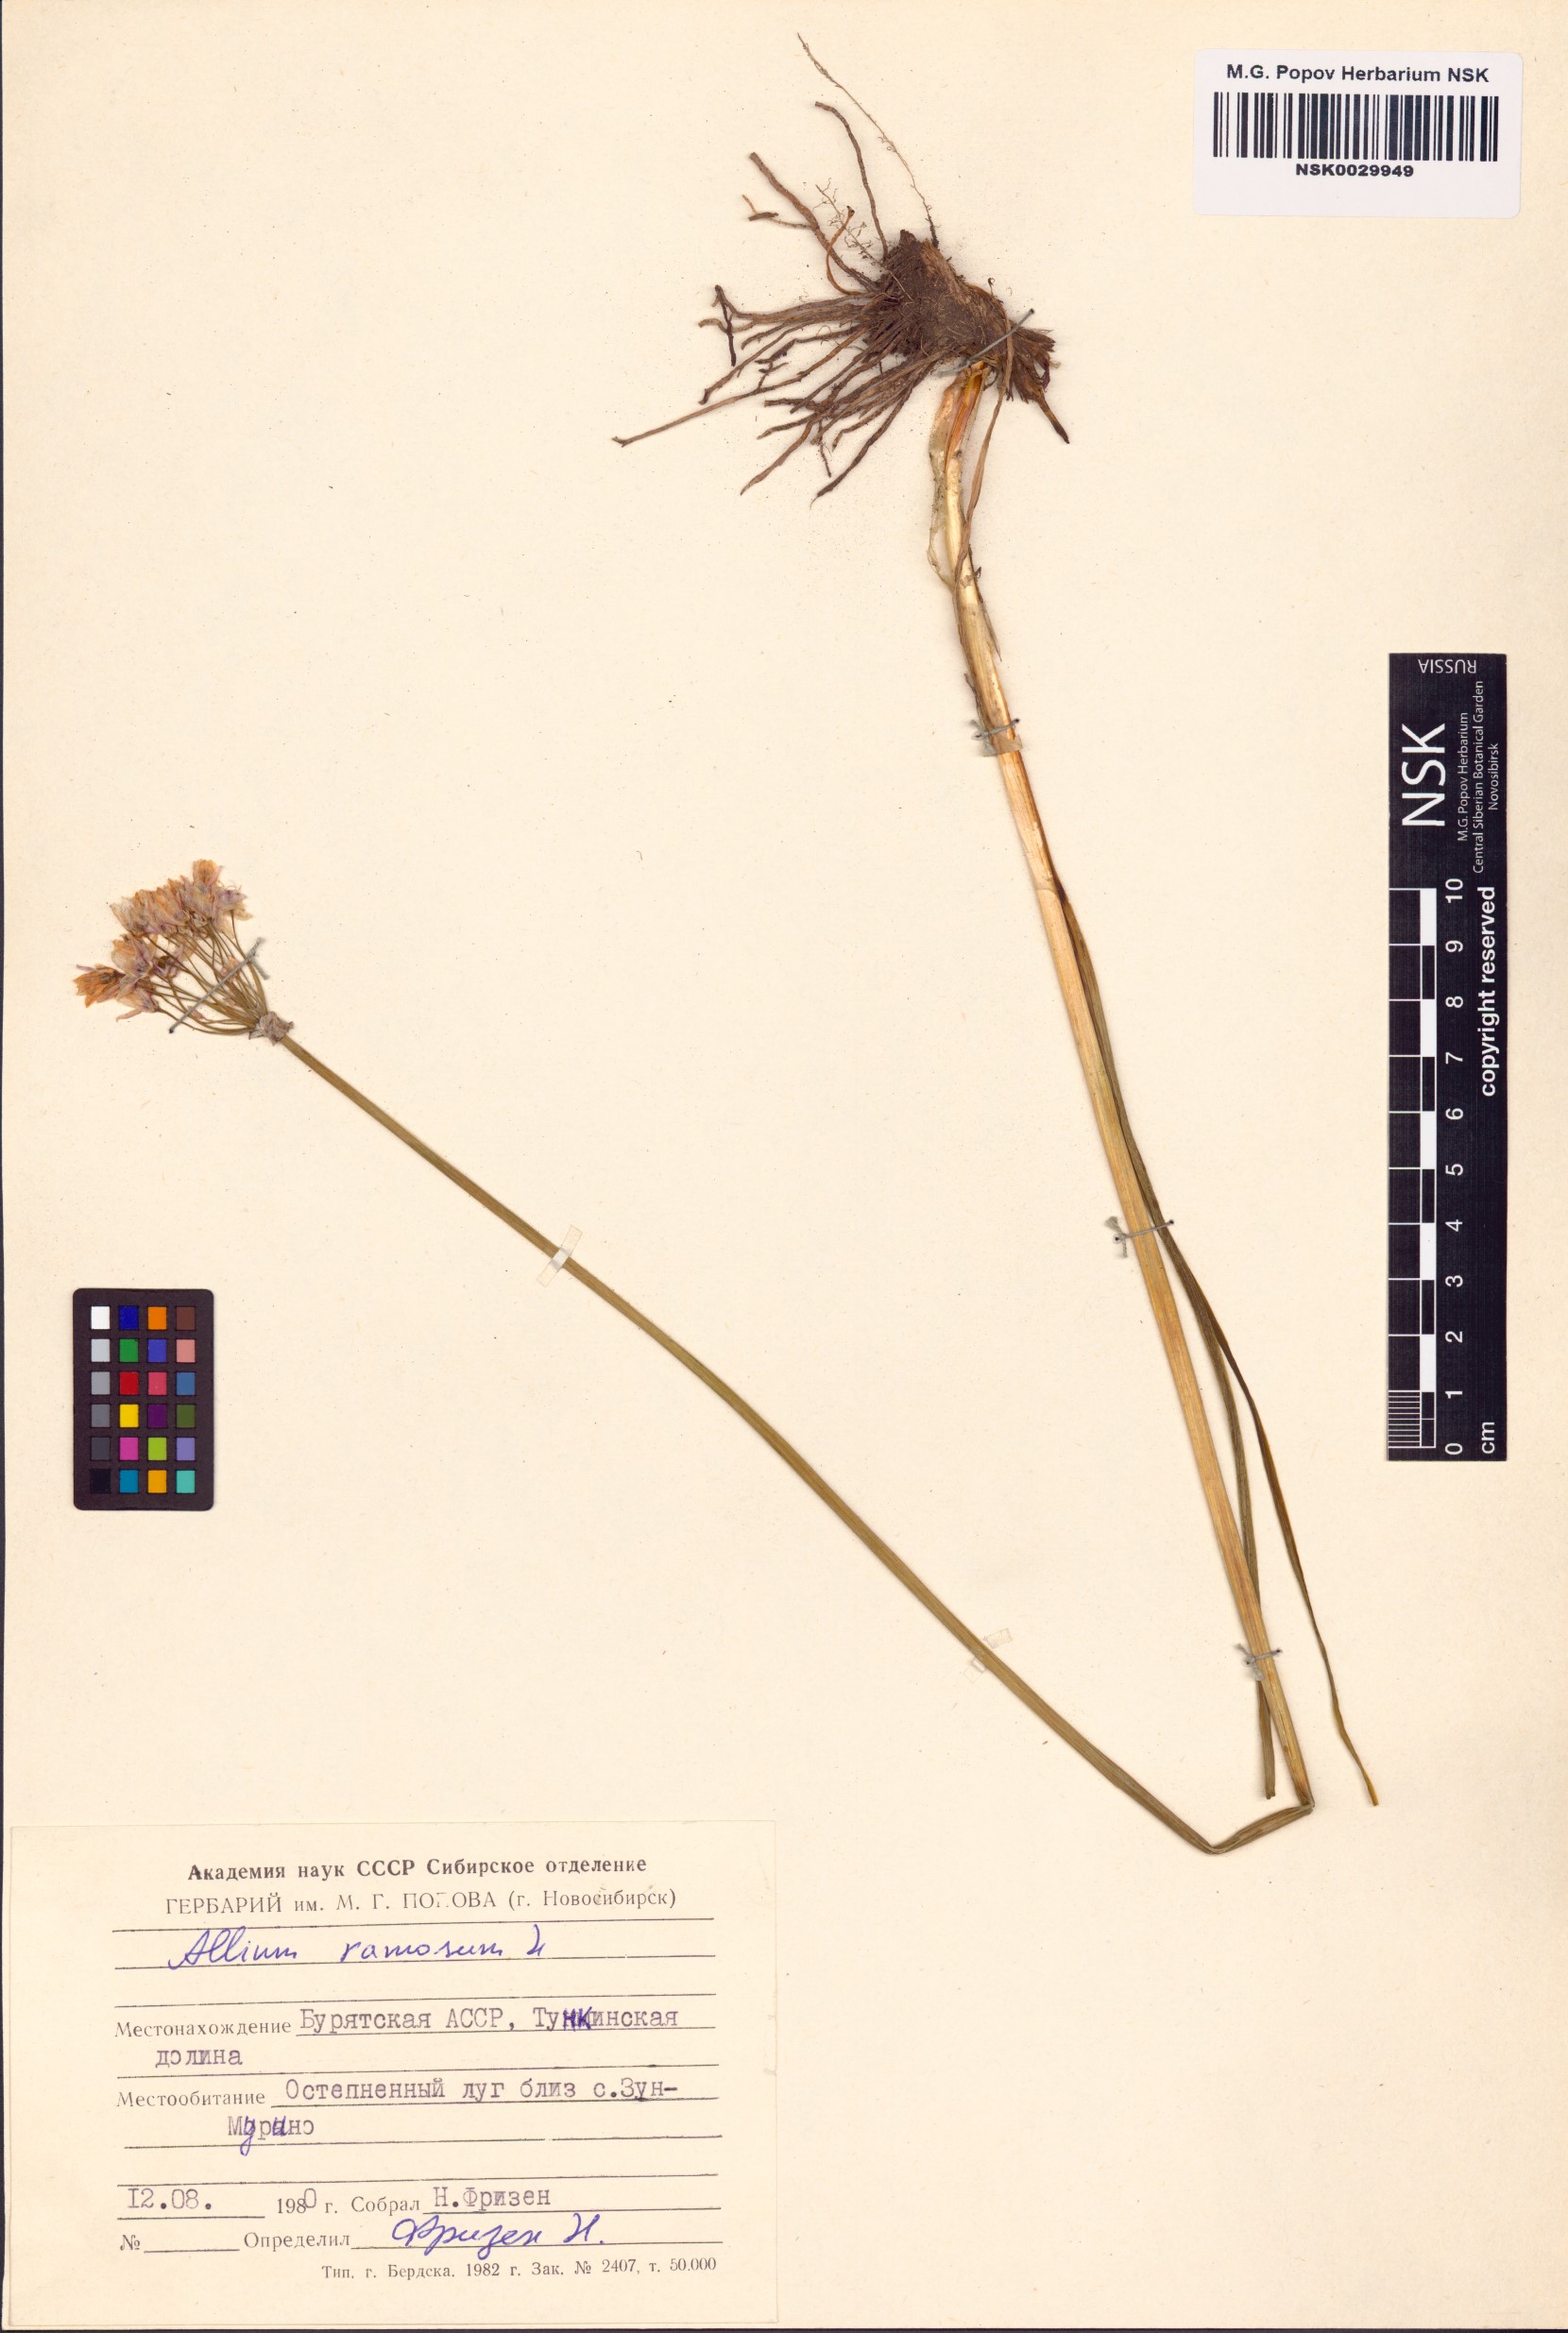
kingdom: Plantae
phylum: Tracheophyta
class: Liliopsida
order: Asparagales
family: Amaryllidaceae
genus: Allium
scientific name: Allium ramosum
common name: Fragrant garlic
